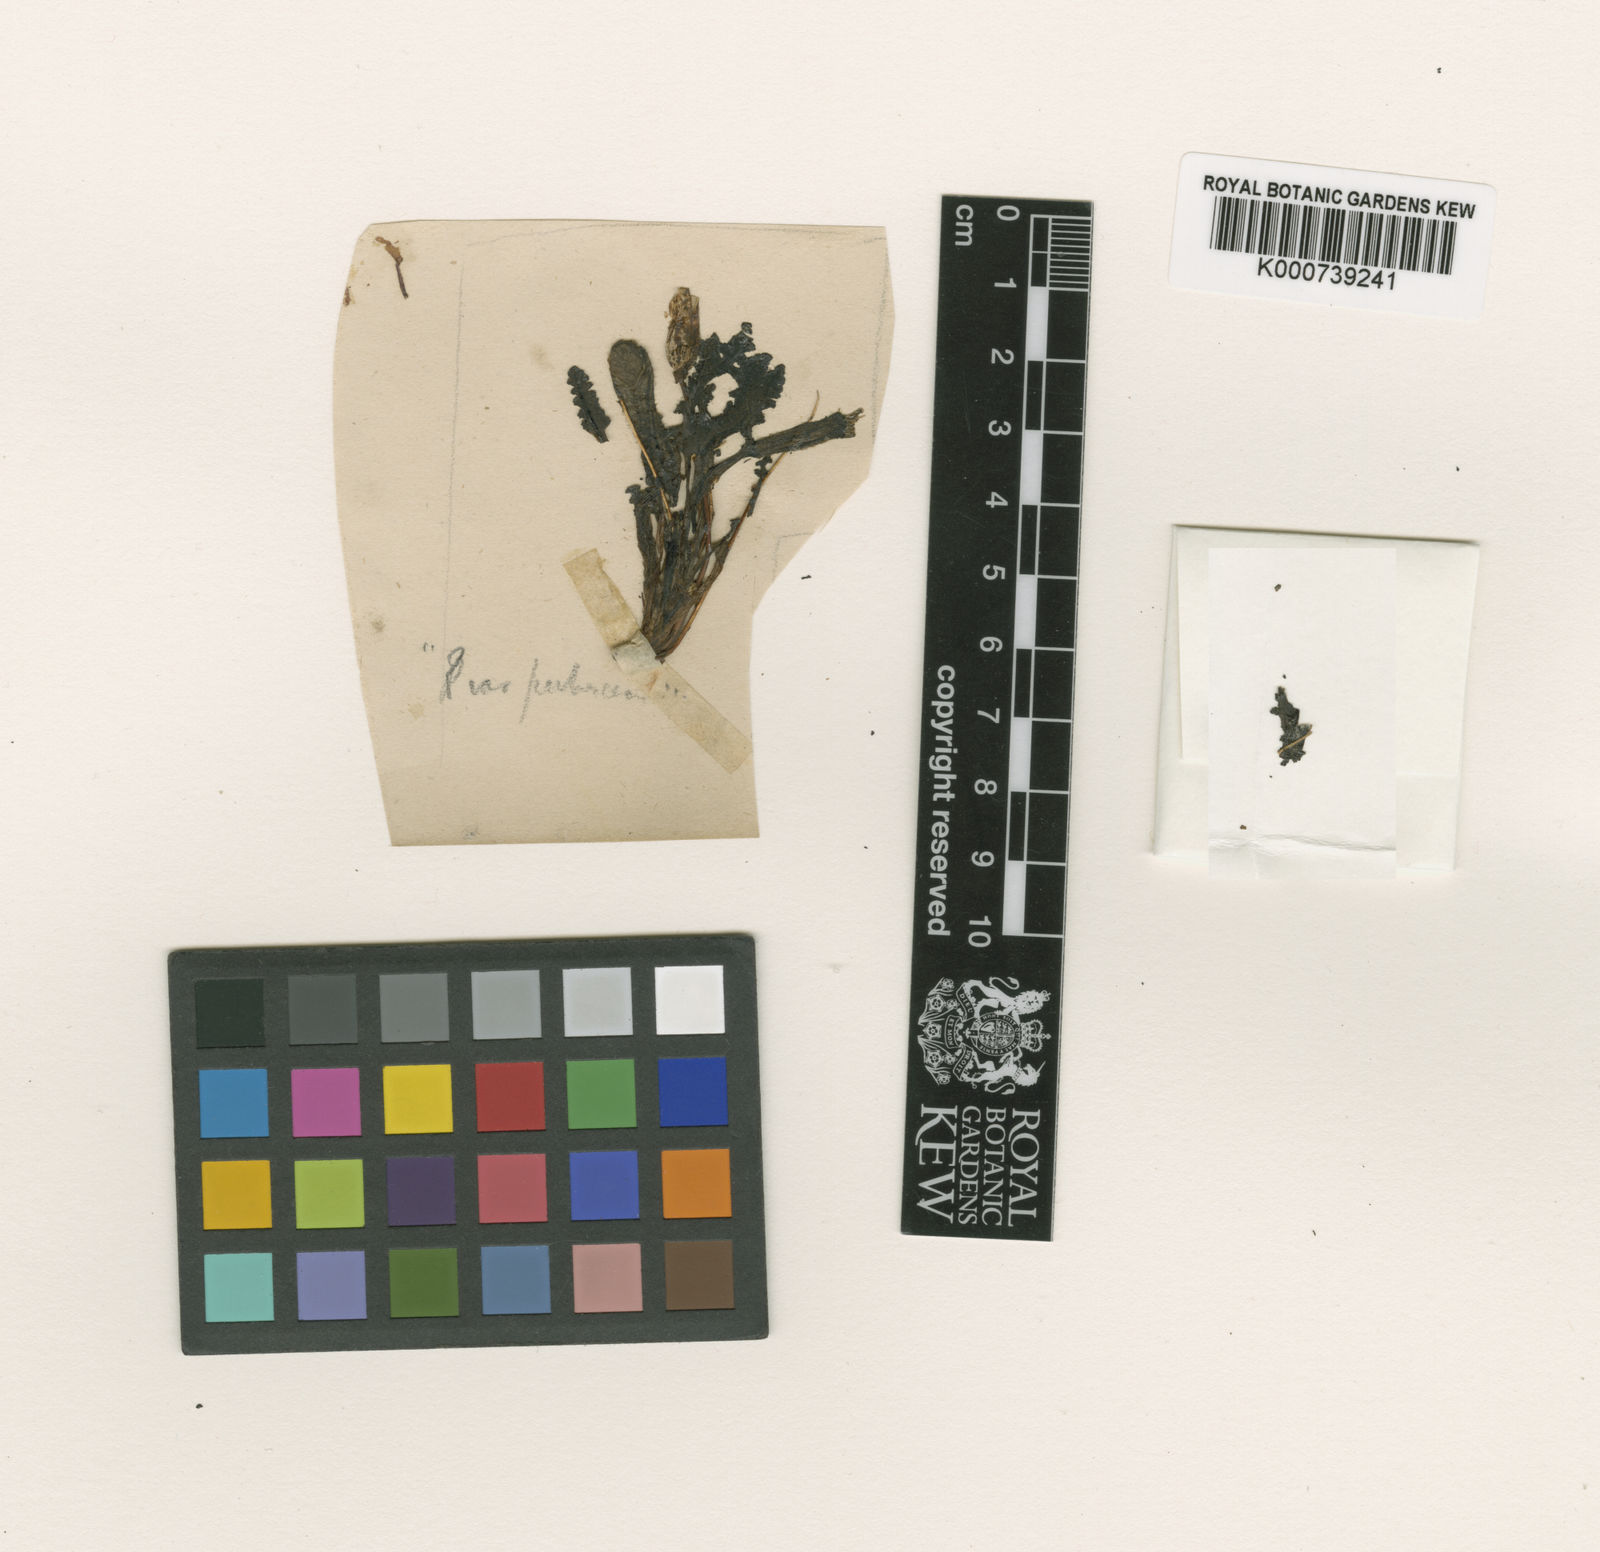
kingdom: Plantae
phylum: Tracheophyta
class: Magnoliopsida
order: Lamiales
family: Orobanchaceae
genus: Pedicularis
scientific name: Pedicularis
